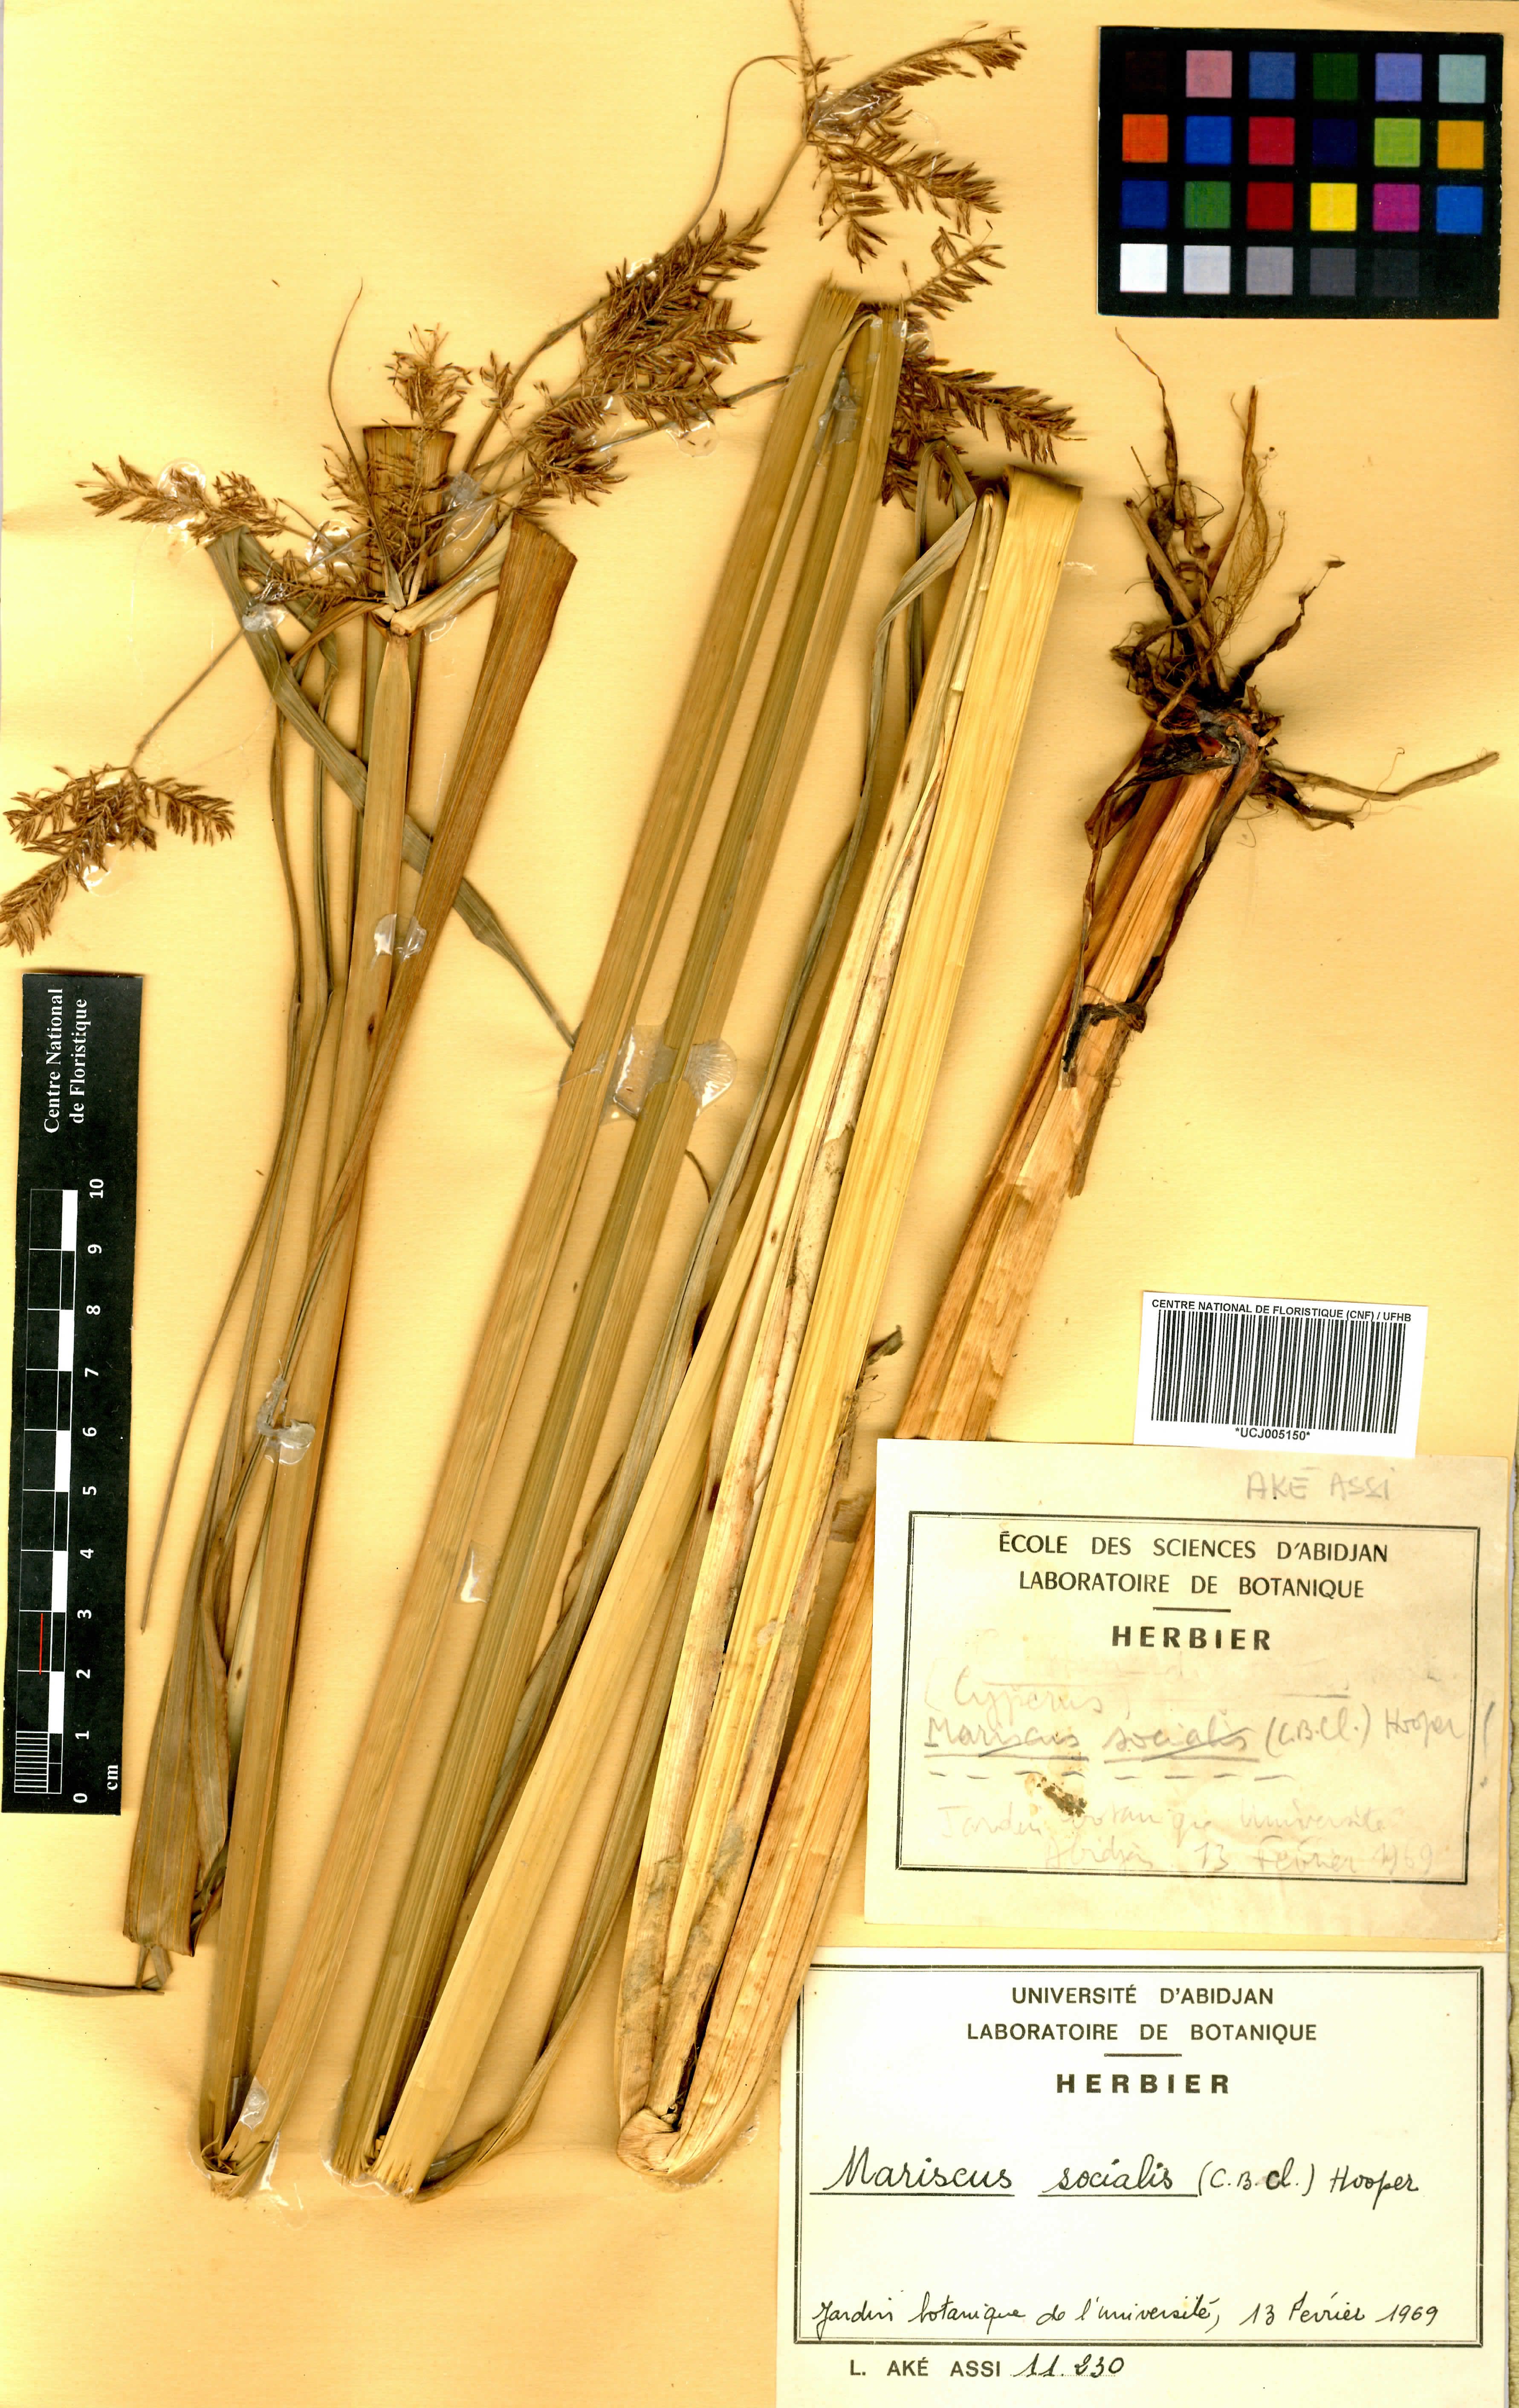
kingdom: Plantae
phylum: Tracheophyta
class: Liliopsida
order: Poales
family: Cyperaceae
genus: Cyperus
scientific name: Cyperus pseudopilosus
